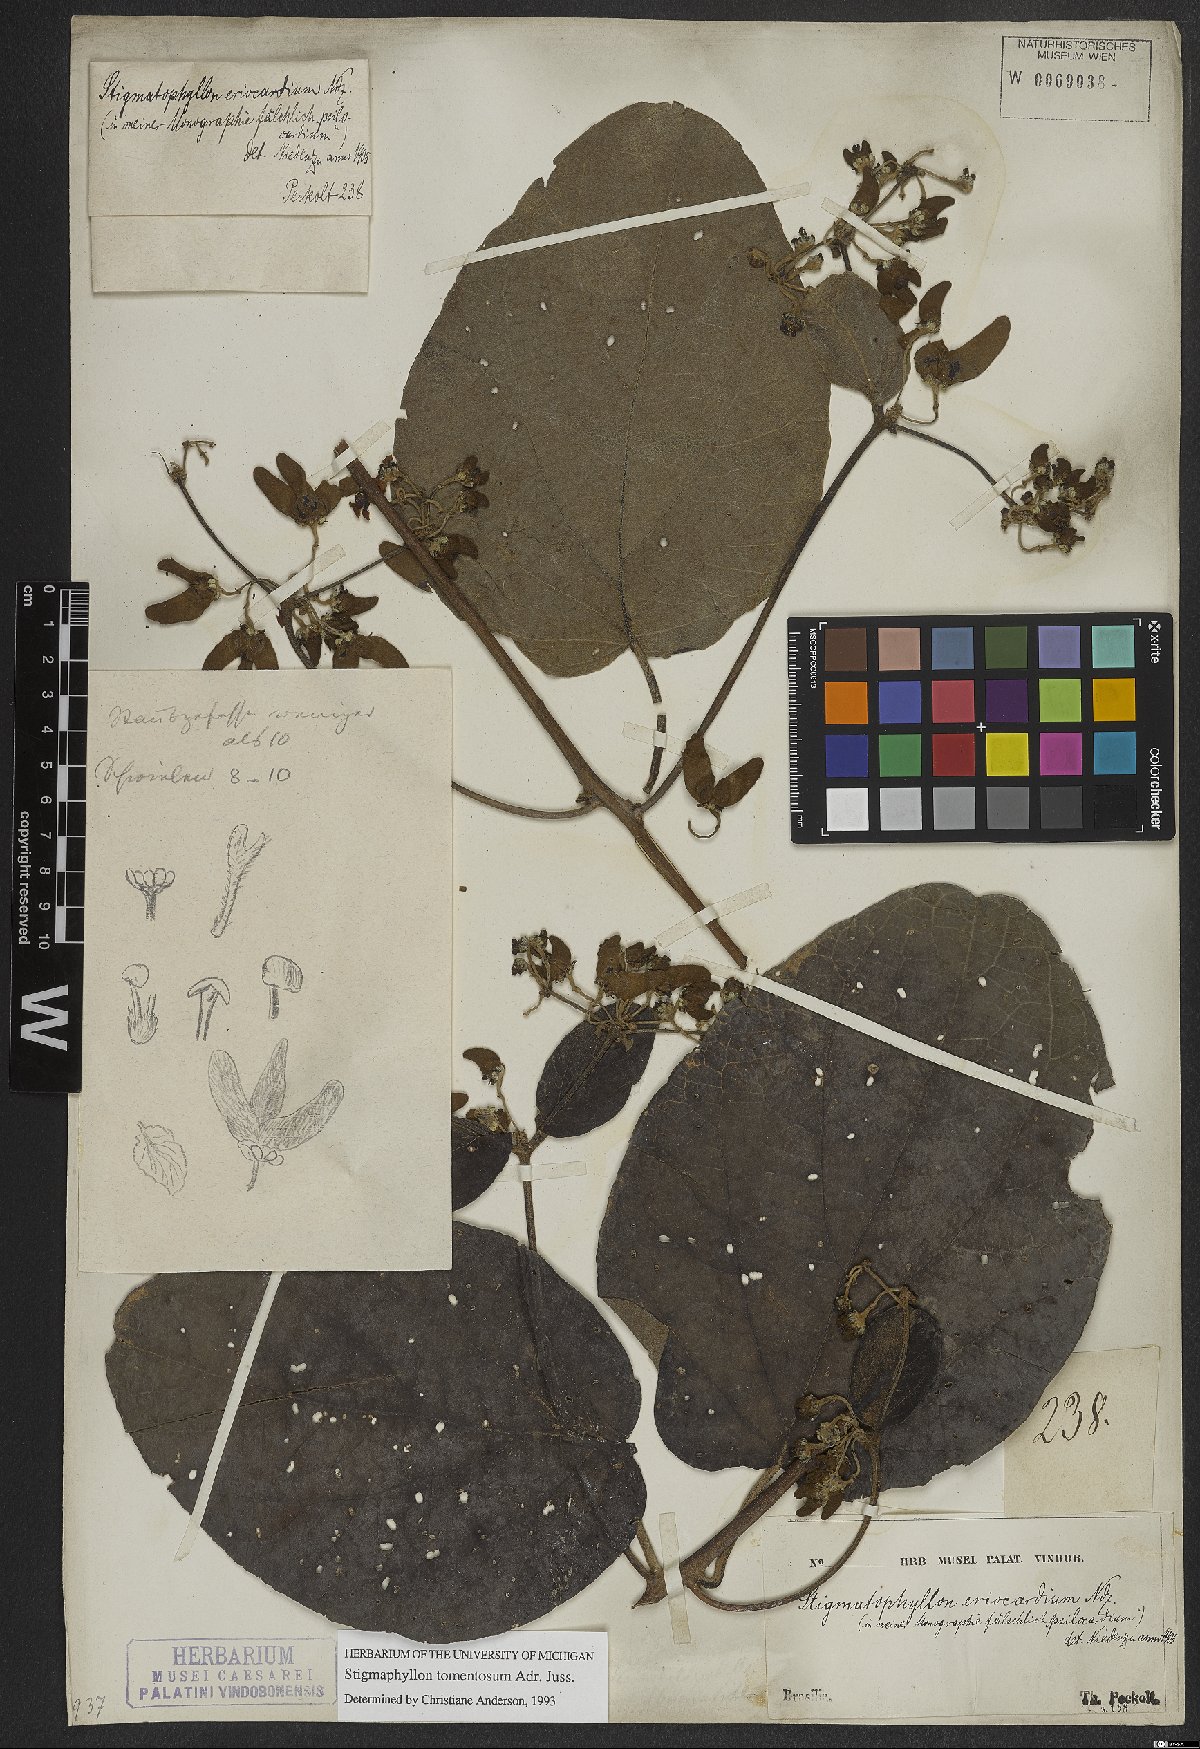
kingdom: Plantae
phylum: Tracheophyta
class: Magnoliopsida
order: Malpighiales
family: Malpighiaceae
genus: Stigmaphyllon
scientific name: Stigmaphyllon tomentosum
